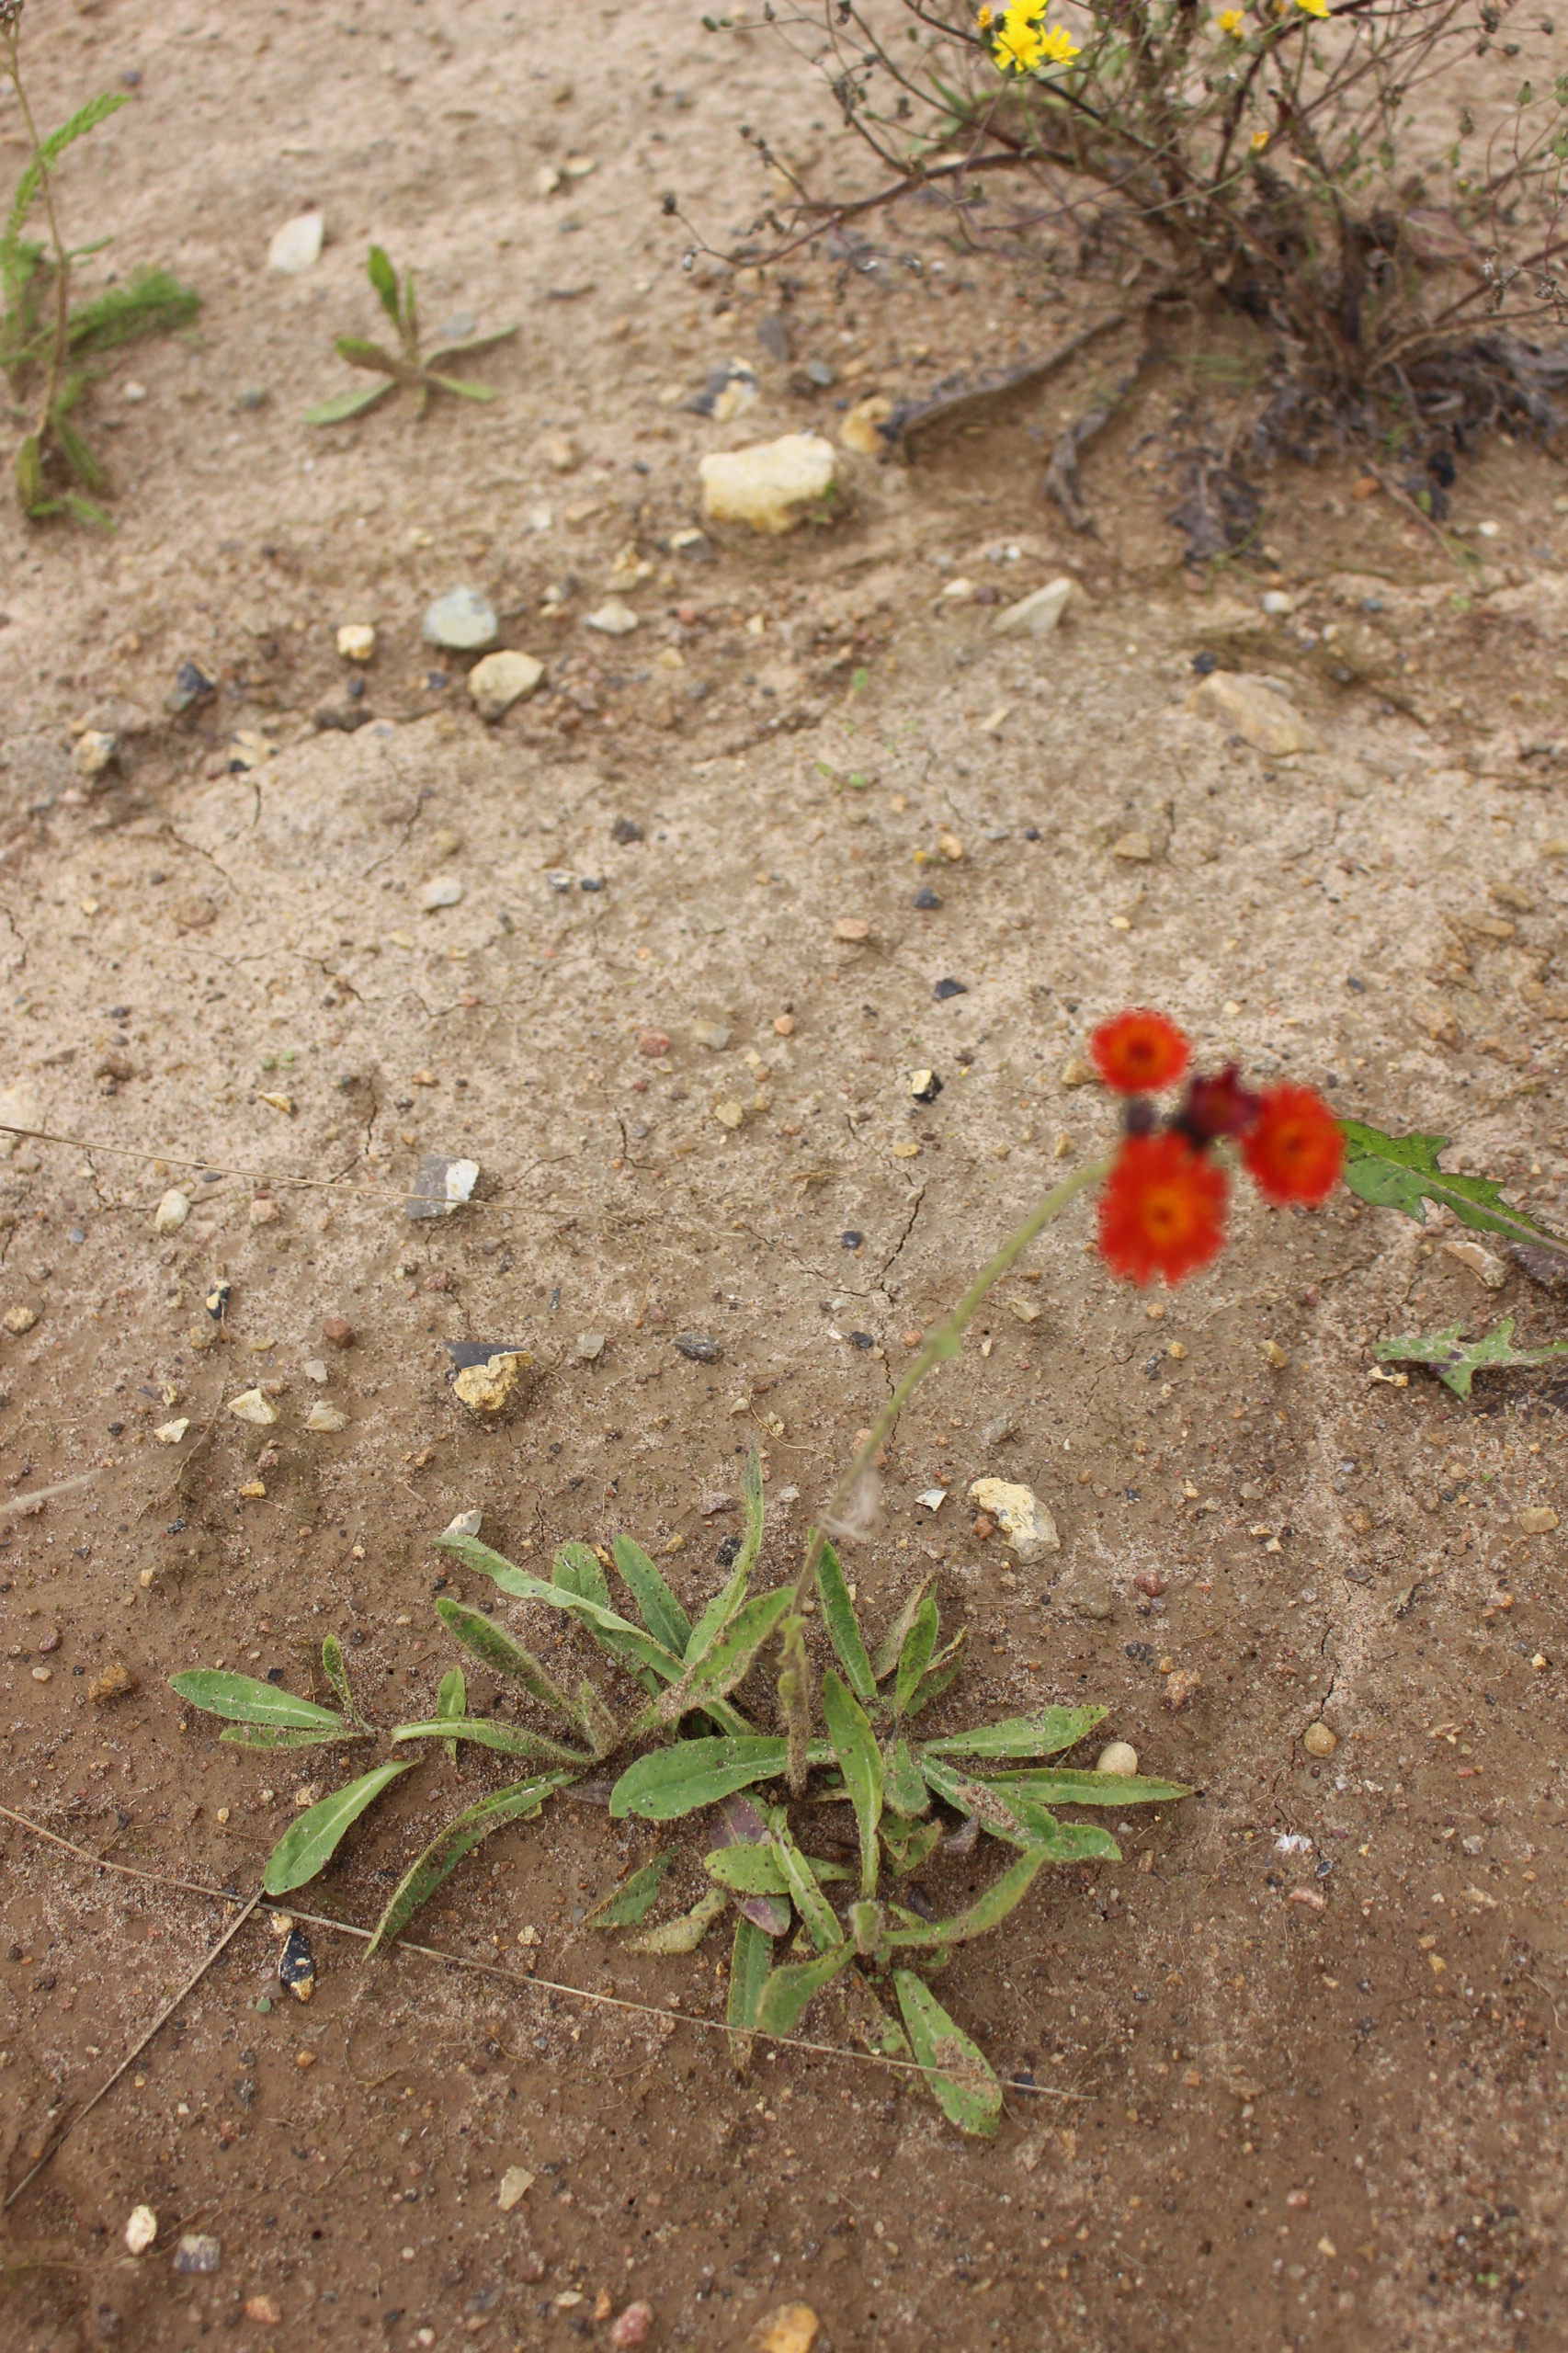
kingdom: Plantae
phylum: Tracheophyta
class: Magnoliopsida
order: Asterales
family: Asteraceae
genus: Pilosella
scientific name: Pilosella aurantiaca
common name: Pomerans-høgeurt
